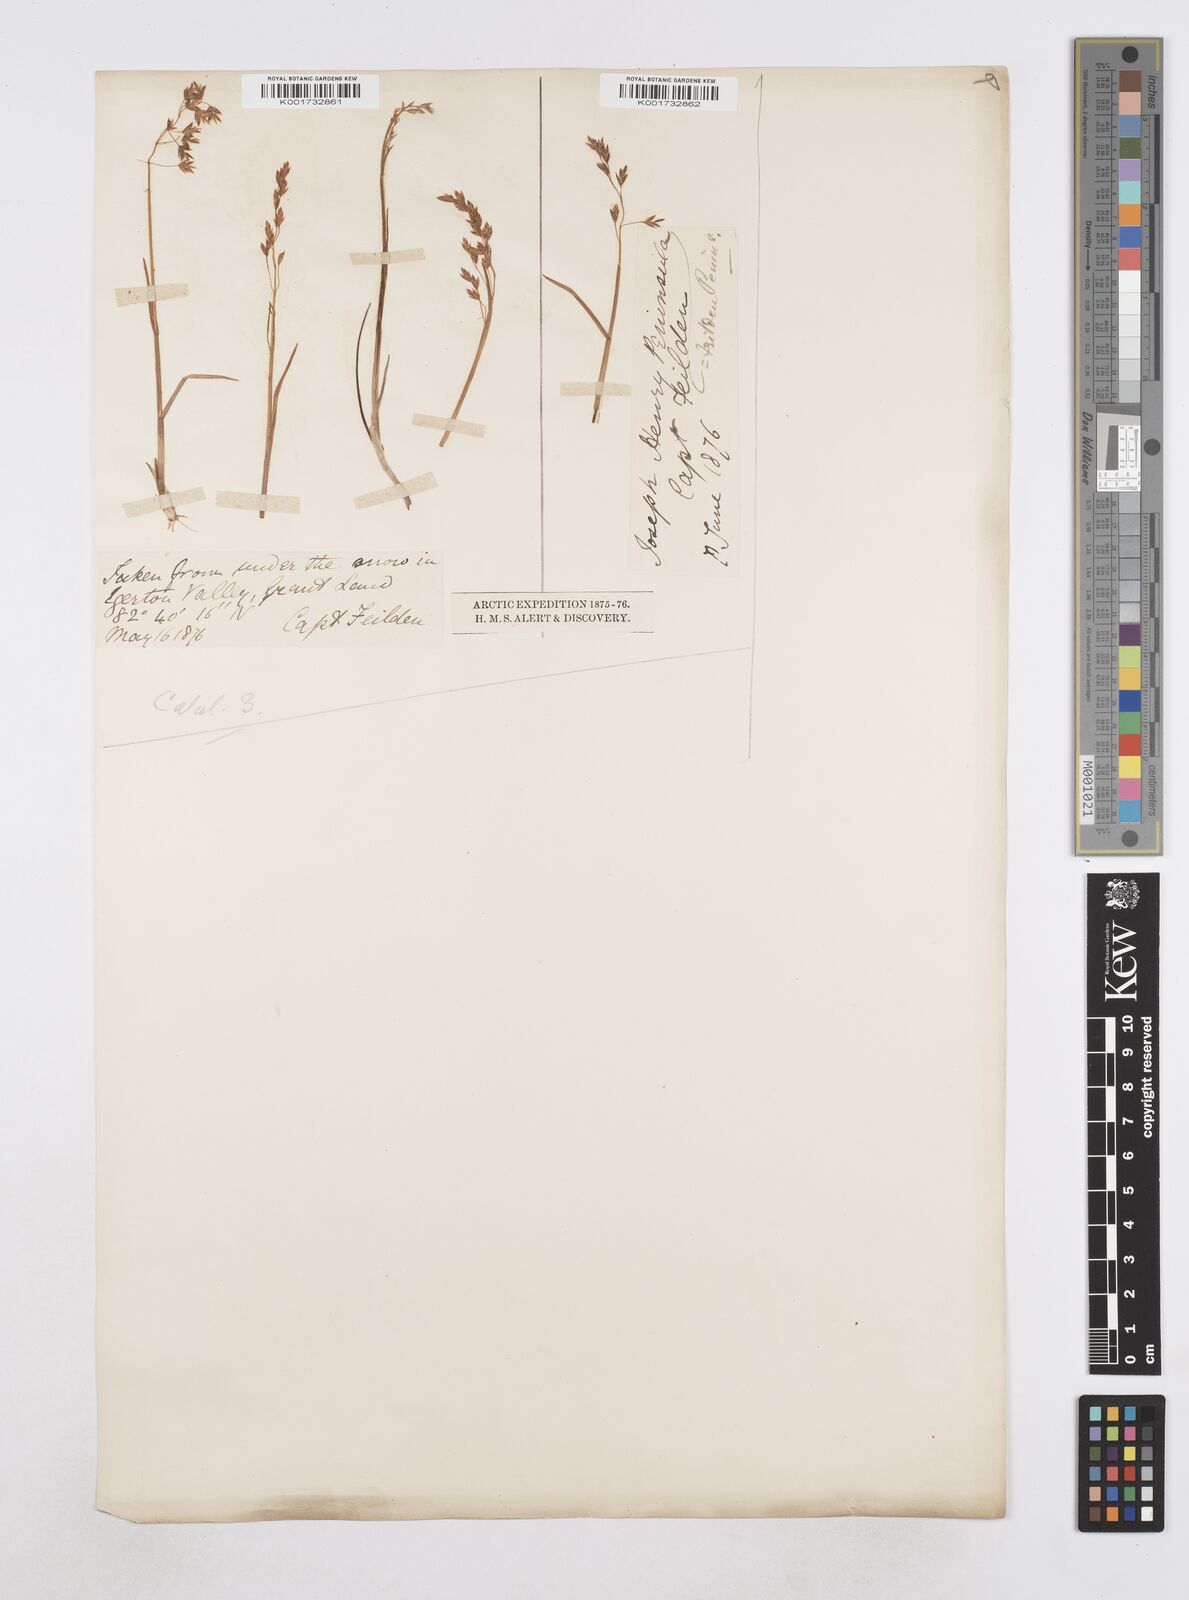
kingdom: Plantae
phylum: Tracheophyta
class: Liliopsida
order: Poales
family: Poaceae
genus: Poa
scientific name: Poa
